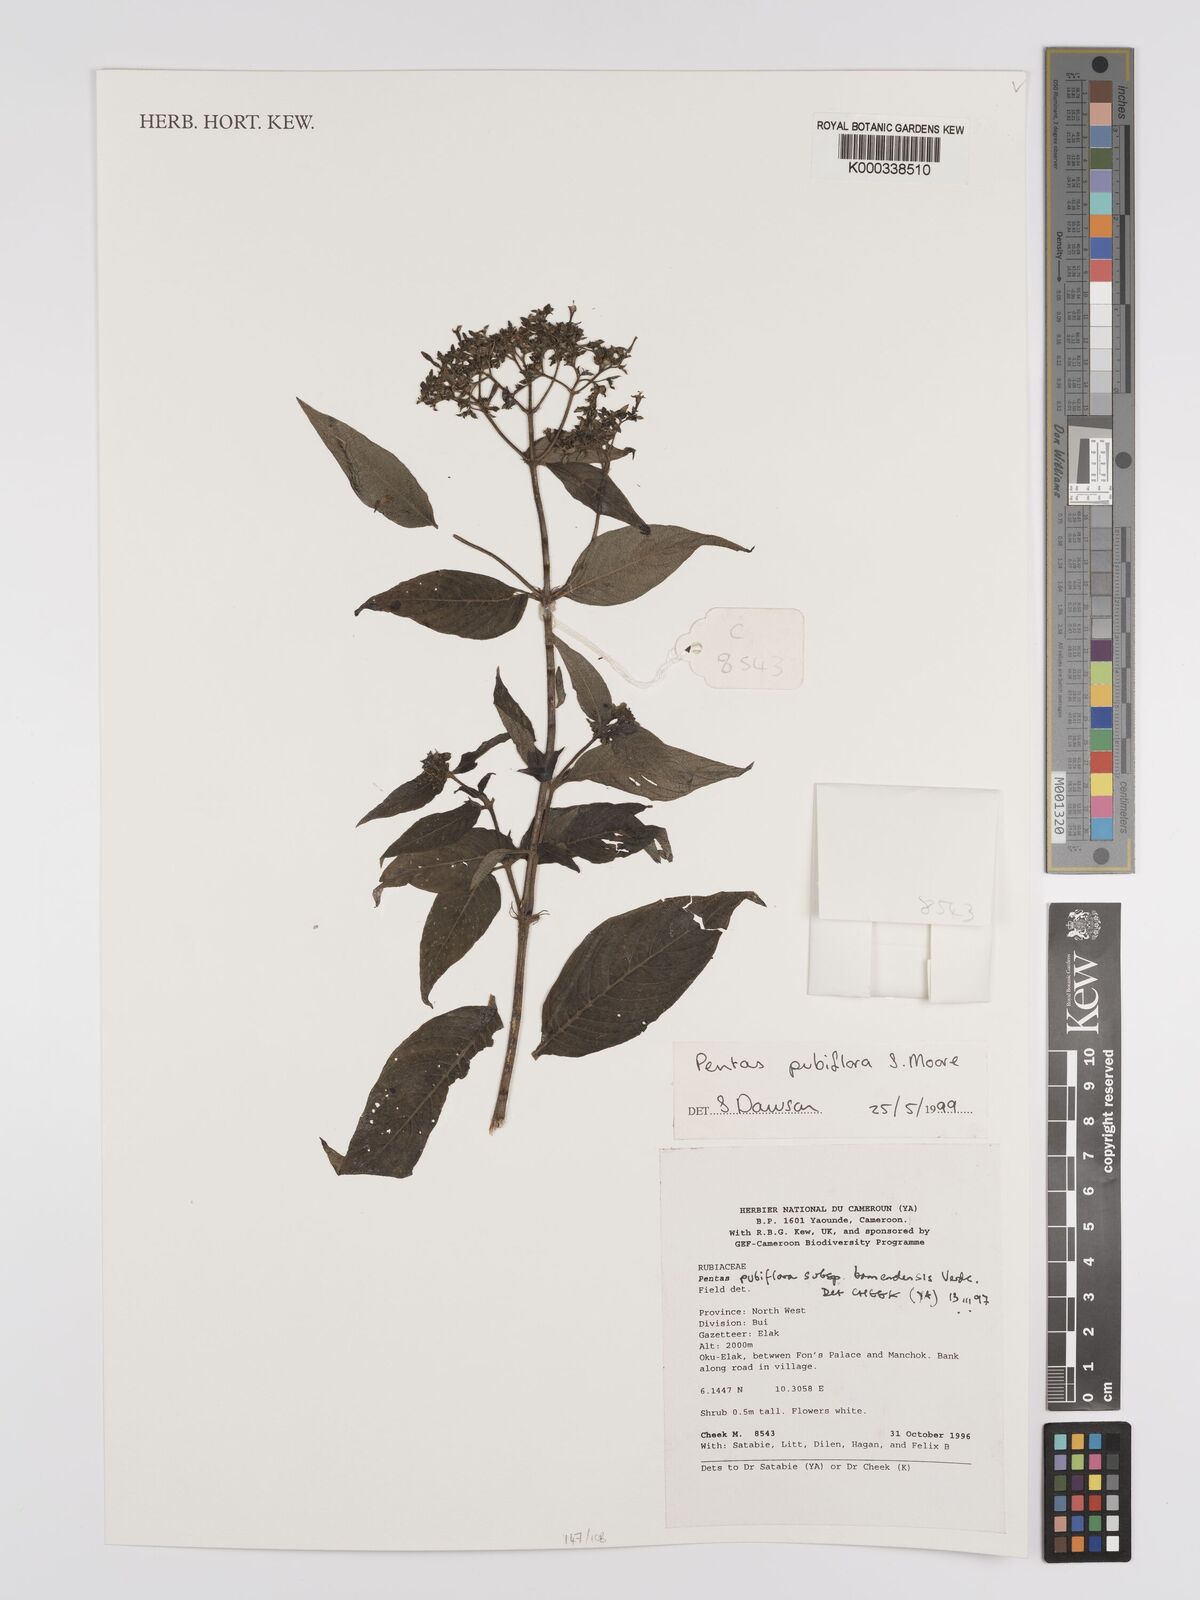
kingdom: Plantae
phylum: Tracheophyta
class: Magnoliopsida
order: Gentianales
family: Rubiaceae
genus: Phyllopentas
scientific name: Phyllopentas ledermannii
